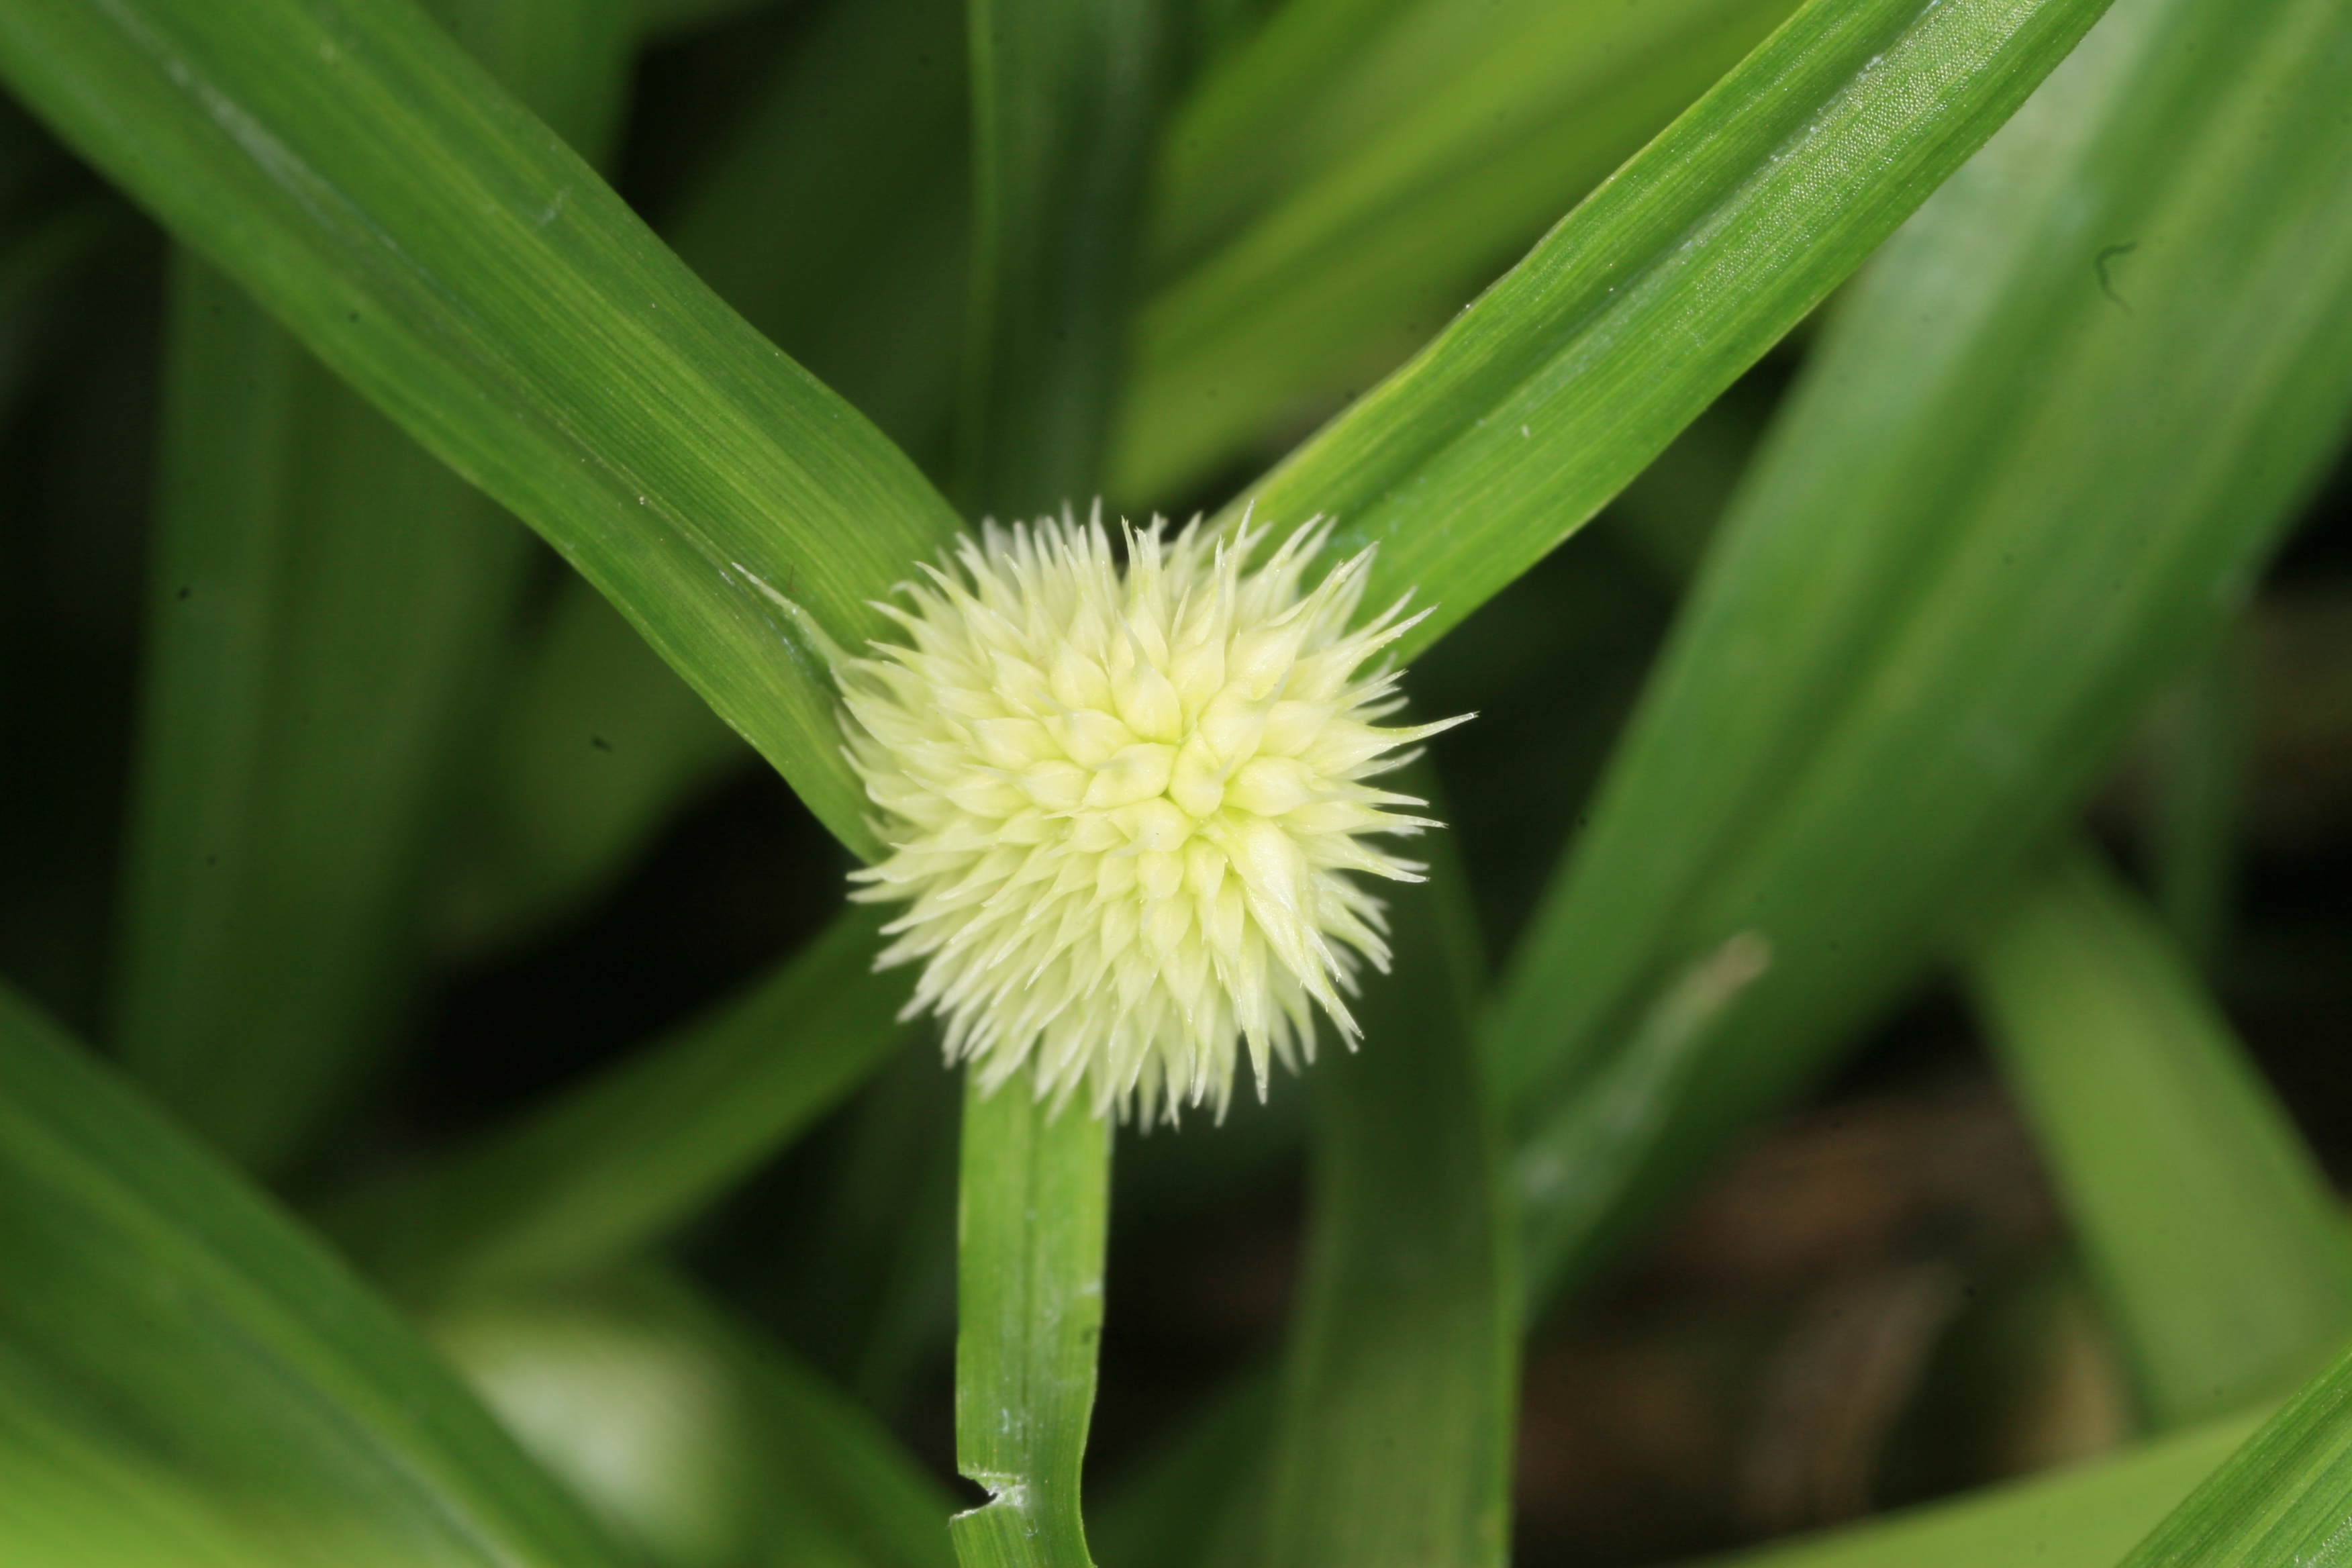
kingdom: Plantae
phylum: Tracheophyta
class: Liliopsida
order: Poales
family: Cyperaceae
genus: Cyperus
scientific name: Cyperus mindorensis
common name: Flatsedge
